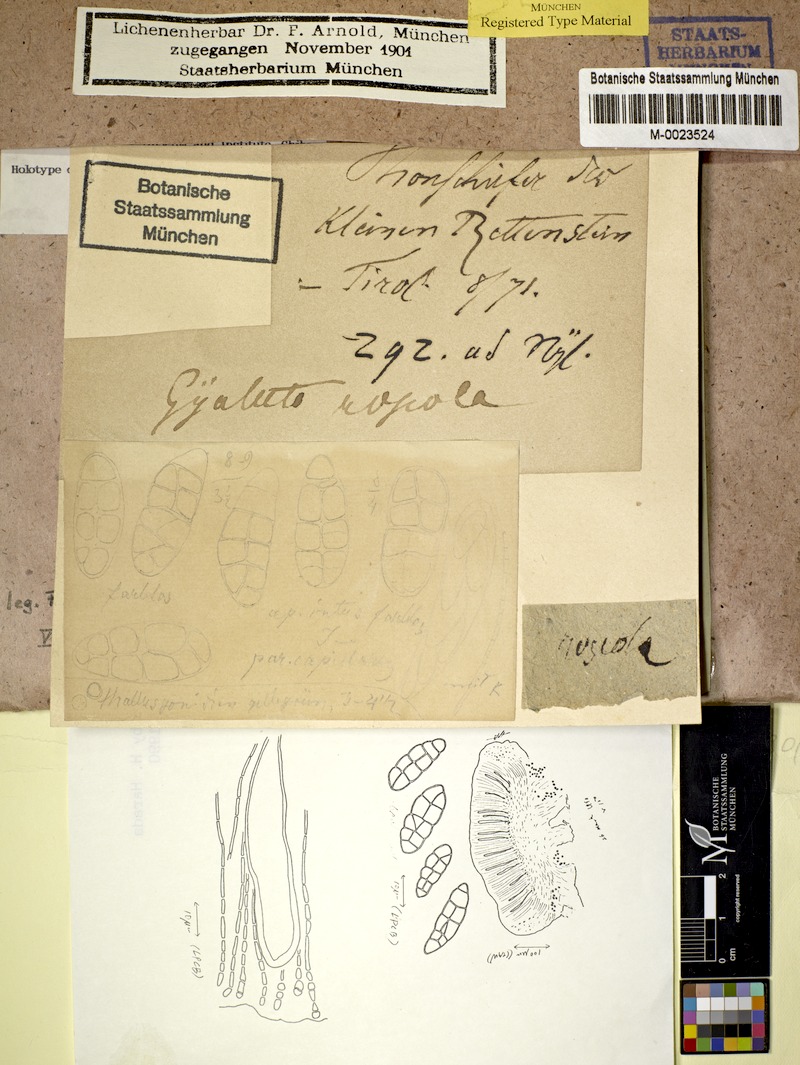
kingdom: Fungi
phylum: Ascomycota
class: Lecanoromycetes
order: Ostropales
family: Gomphillaceae
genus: Gyalidea
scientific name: Gyalidea roseola
